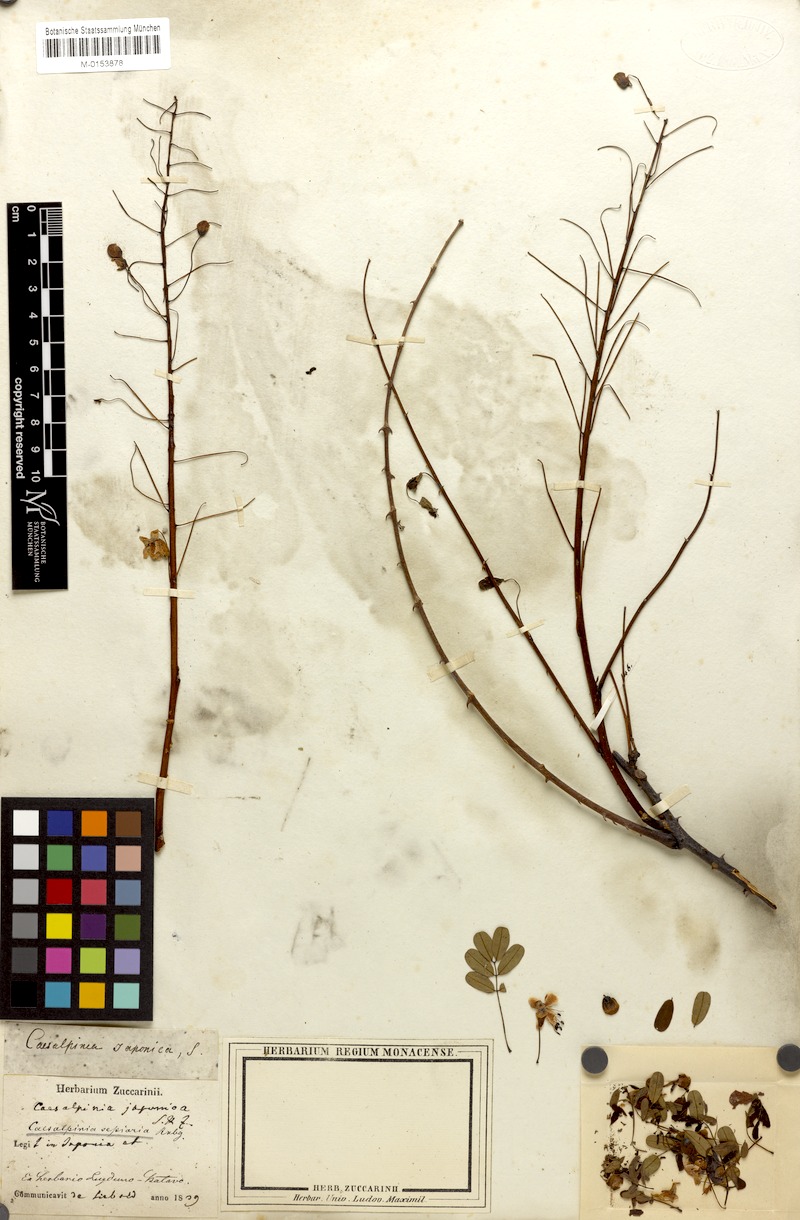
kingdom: Plantae
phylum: Tracheophyta
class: Magnoliopsida
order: Fabales
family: Fabaceae
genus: Biancaea
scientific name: Biancaea decapetala
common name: Cat's claw
